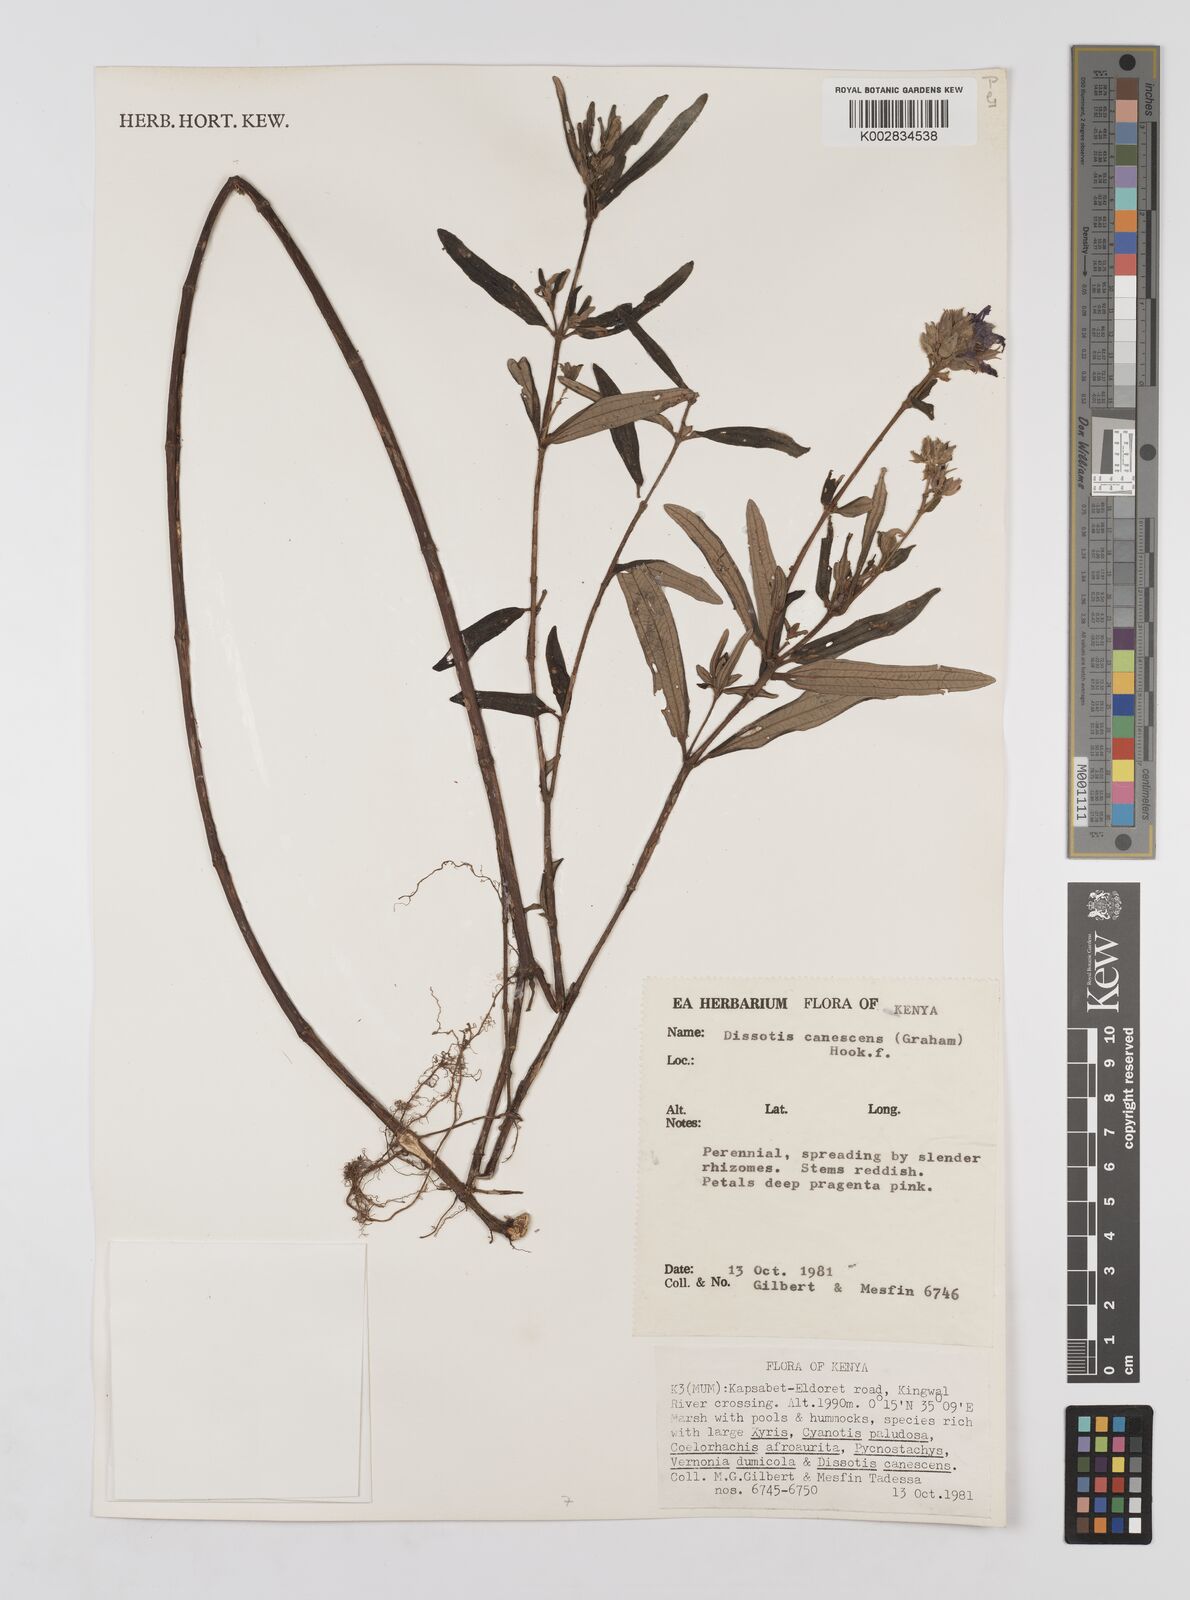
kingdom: Plantae
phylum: Tracheophyta
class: Magnoliopsida
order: Myrtales
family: Melastomataceae
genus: Argyrella
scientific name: Argyrella canescens
